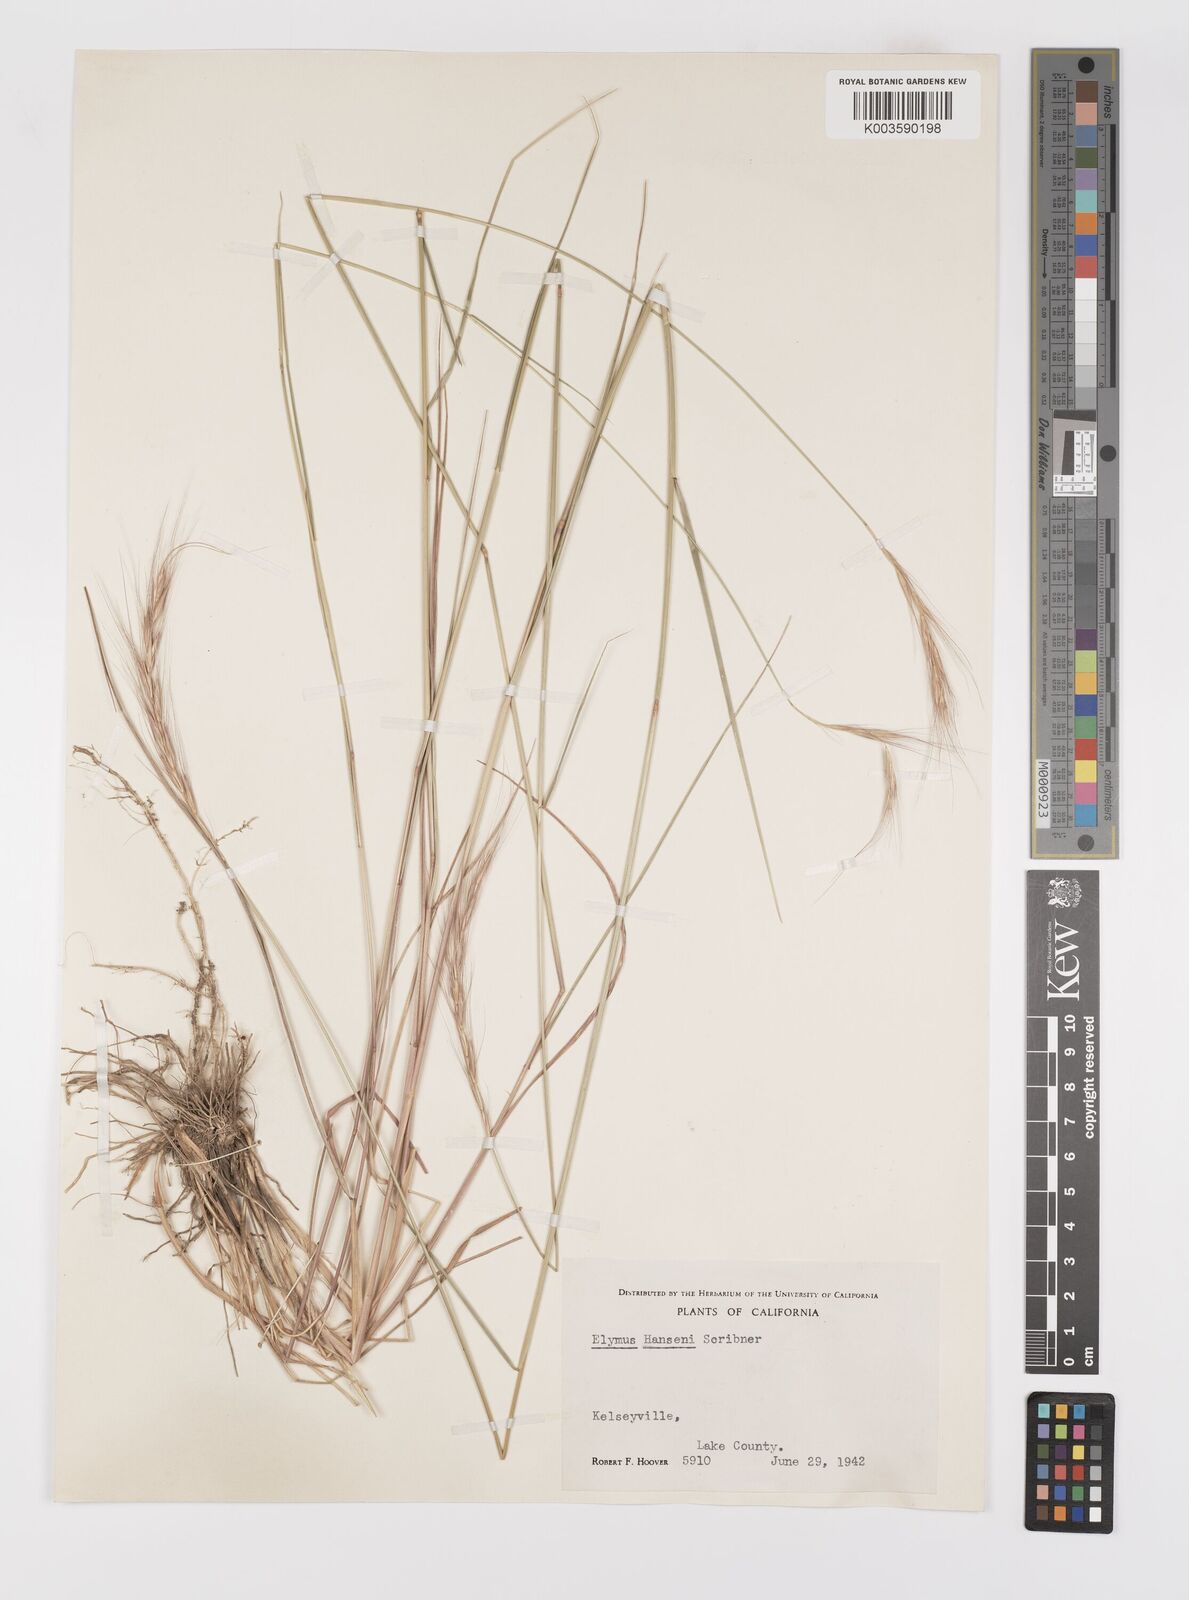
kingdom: Plantae
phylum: Tracheophyta
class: Liliopsida
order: Poales
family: Poaceae
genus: Elymus
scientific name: Elymus hansenii
